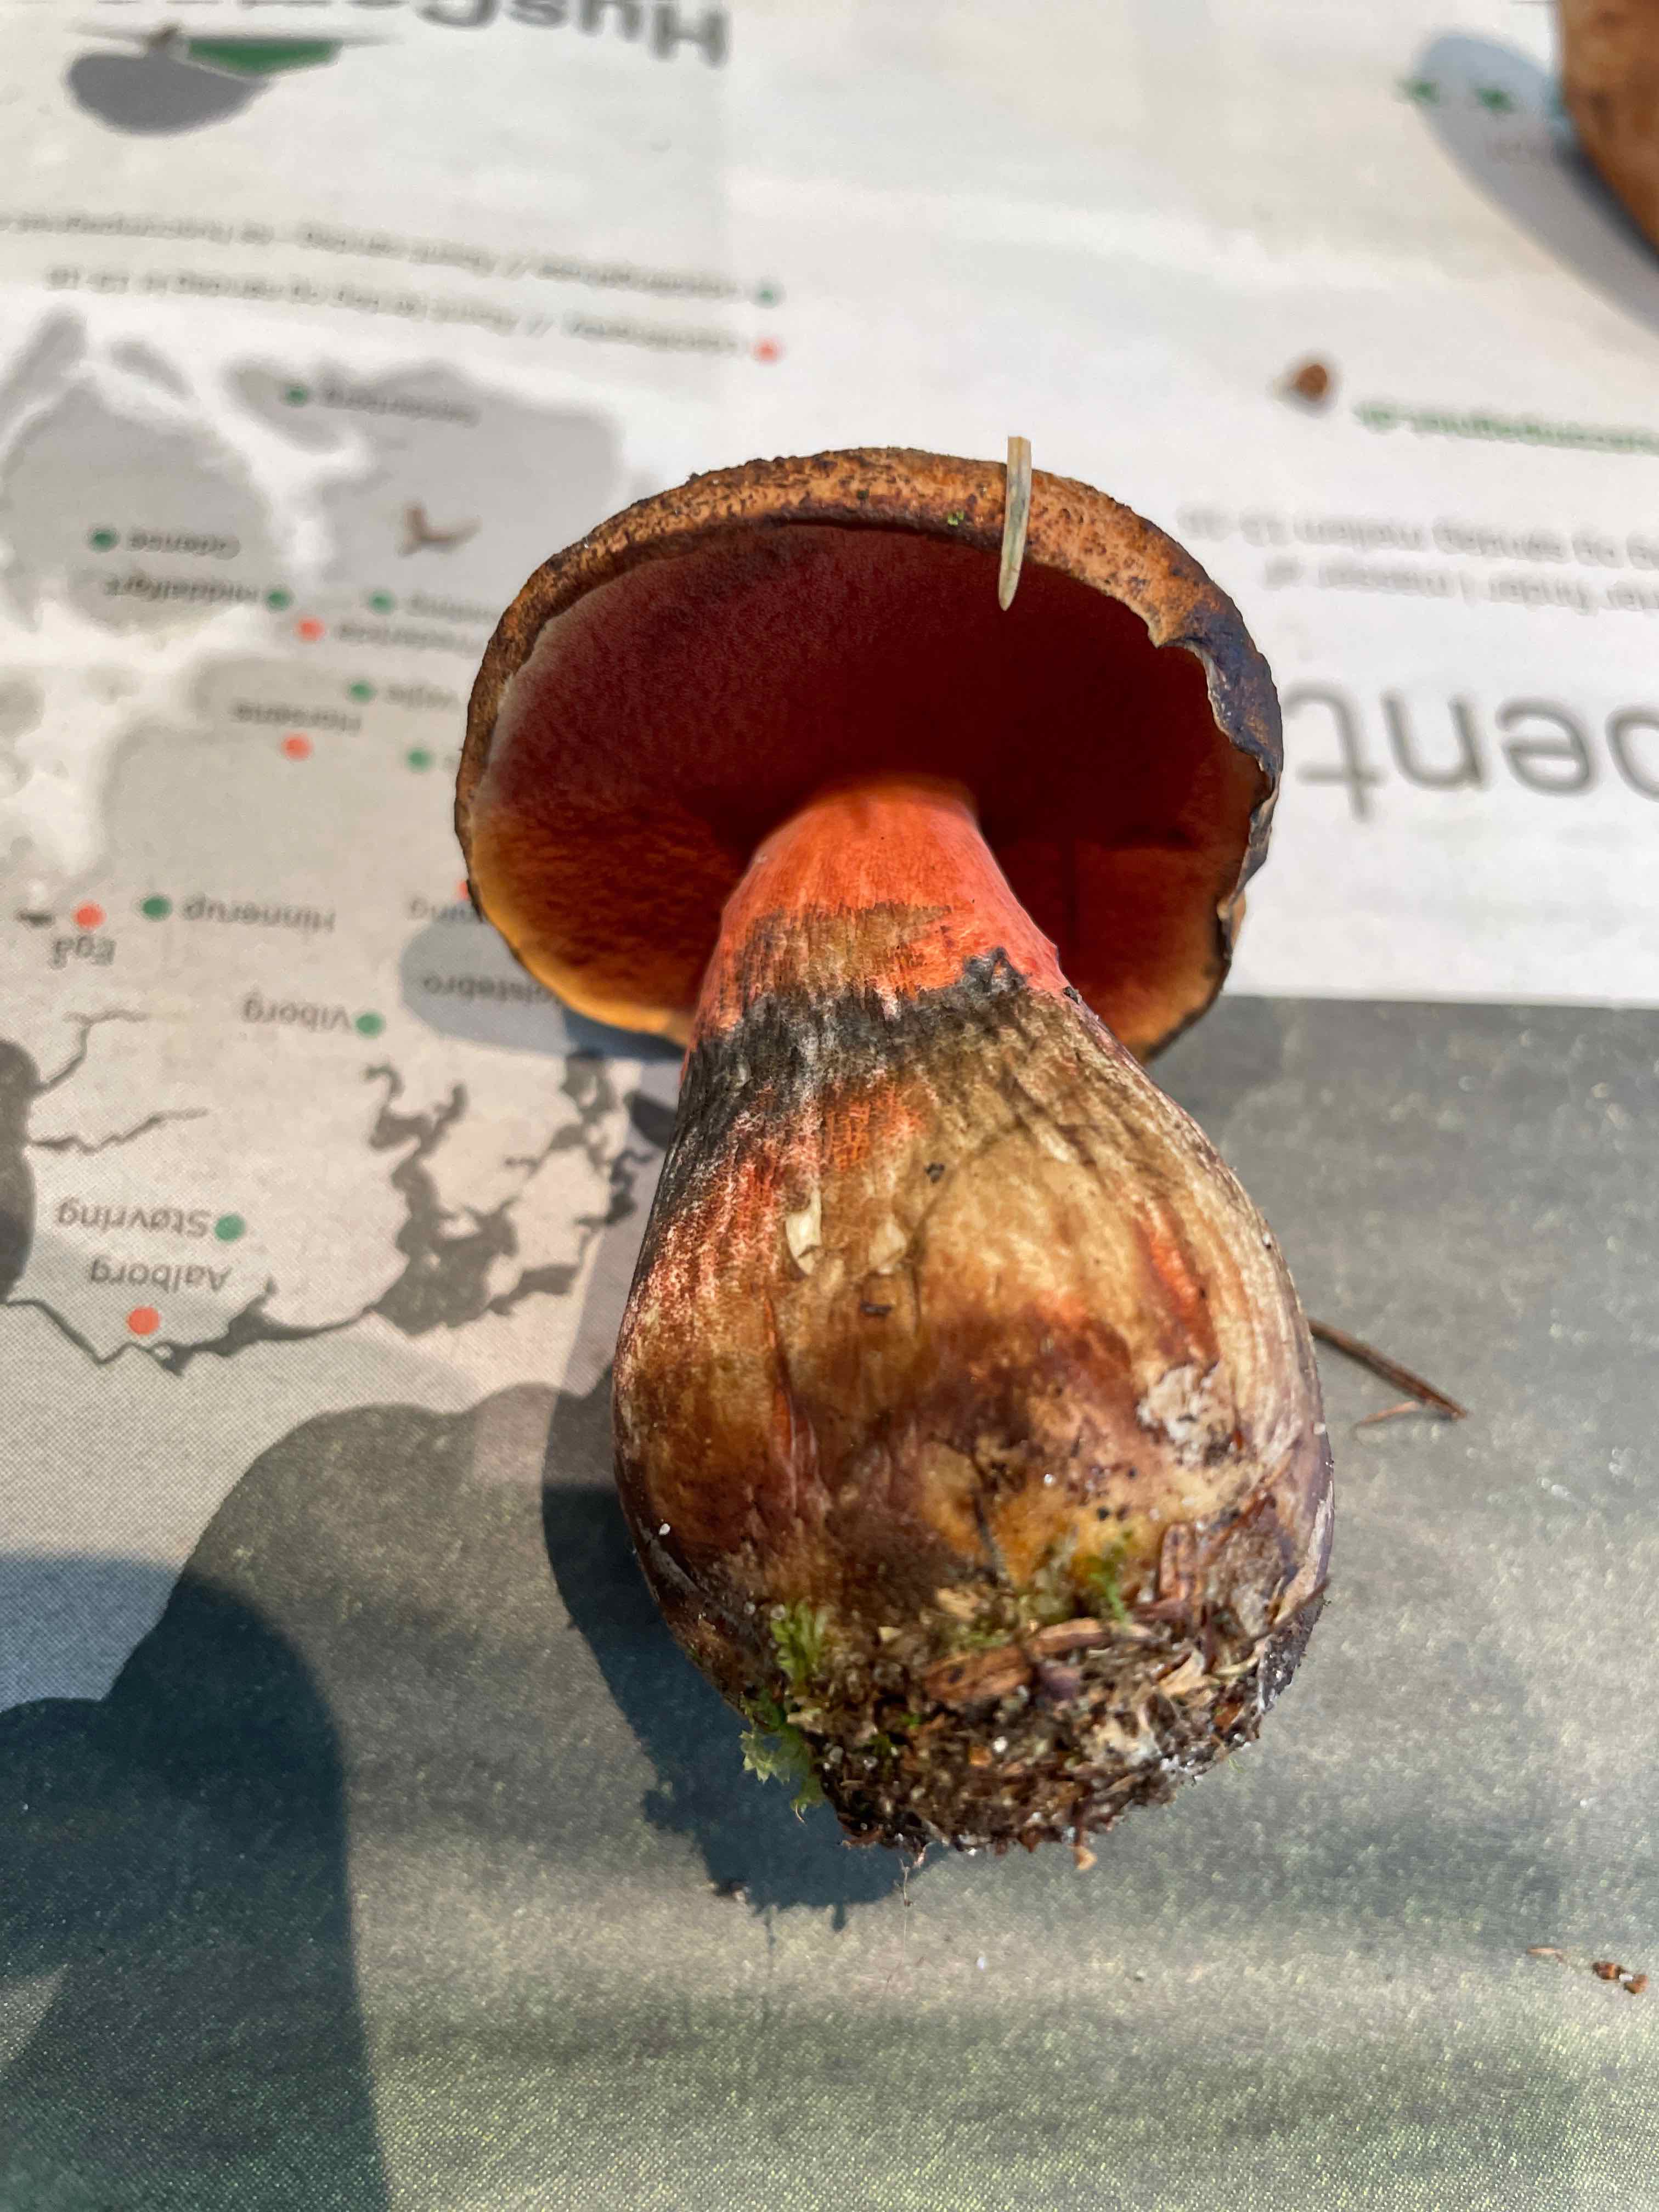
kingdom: Fungi
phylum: Basidiomycota
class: Agaricomycetes
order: Boletales
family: Boletaceae
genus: Neoboletus
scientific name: Neoboletus erythropus
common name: punktstokket indigorørhat
